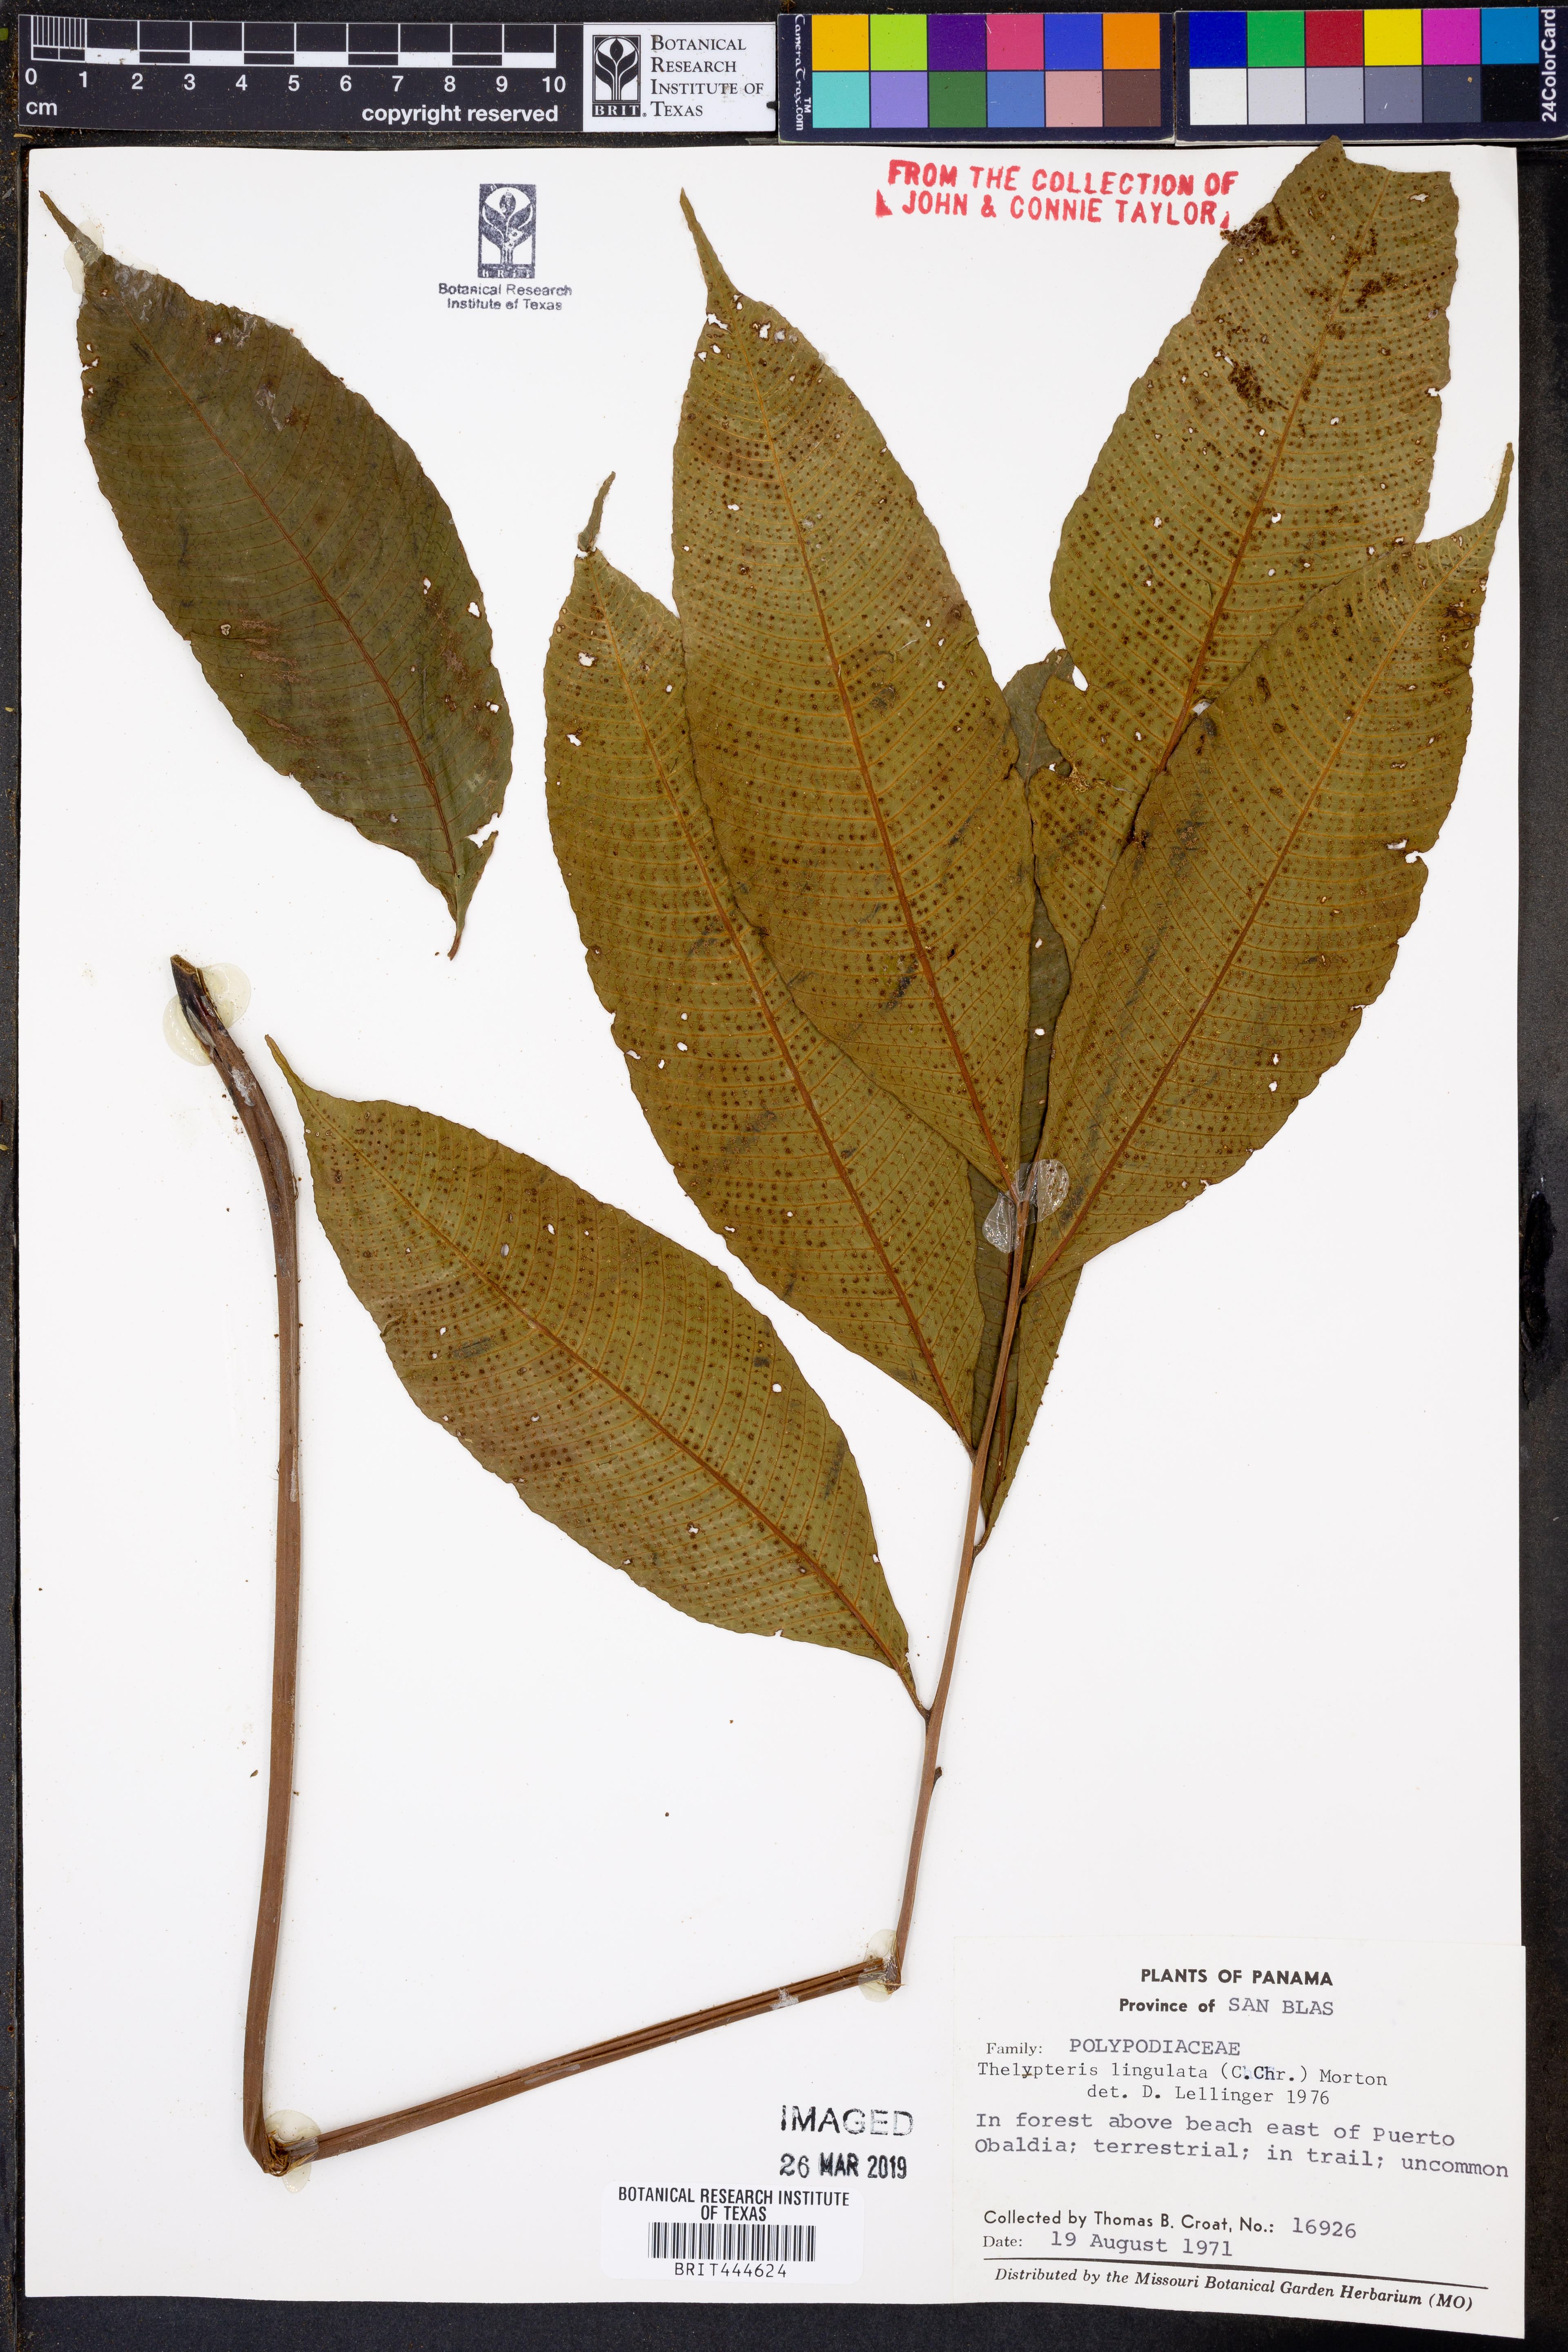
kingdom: Plantae
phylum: Tracheophyta
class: Polypodiopsida
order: Polypodiales
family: Thelypteridaceae
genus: Meniscium
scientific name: Meniscium lingulatum
